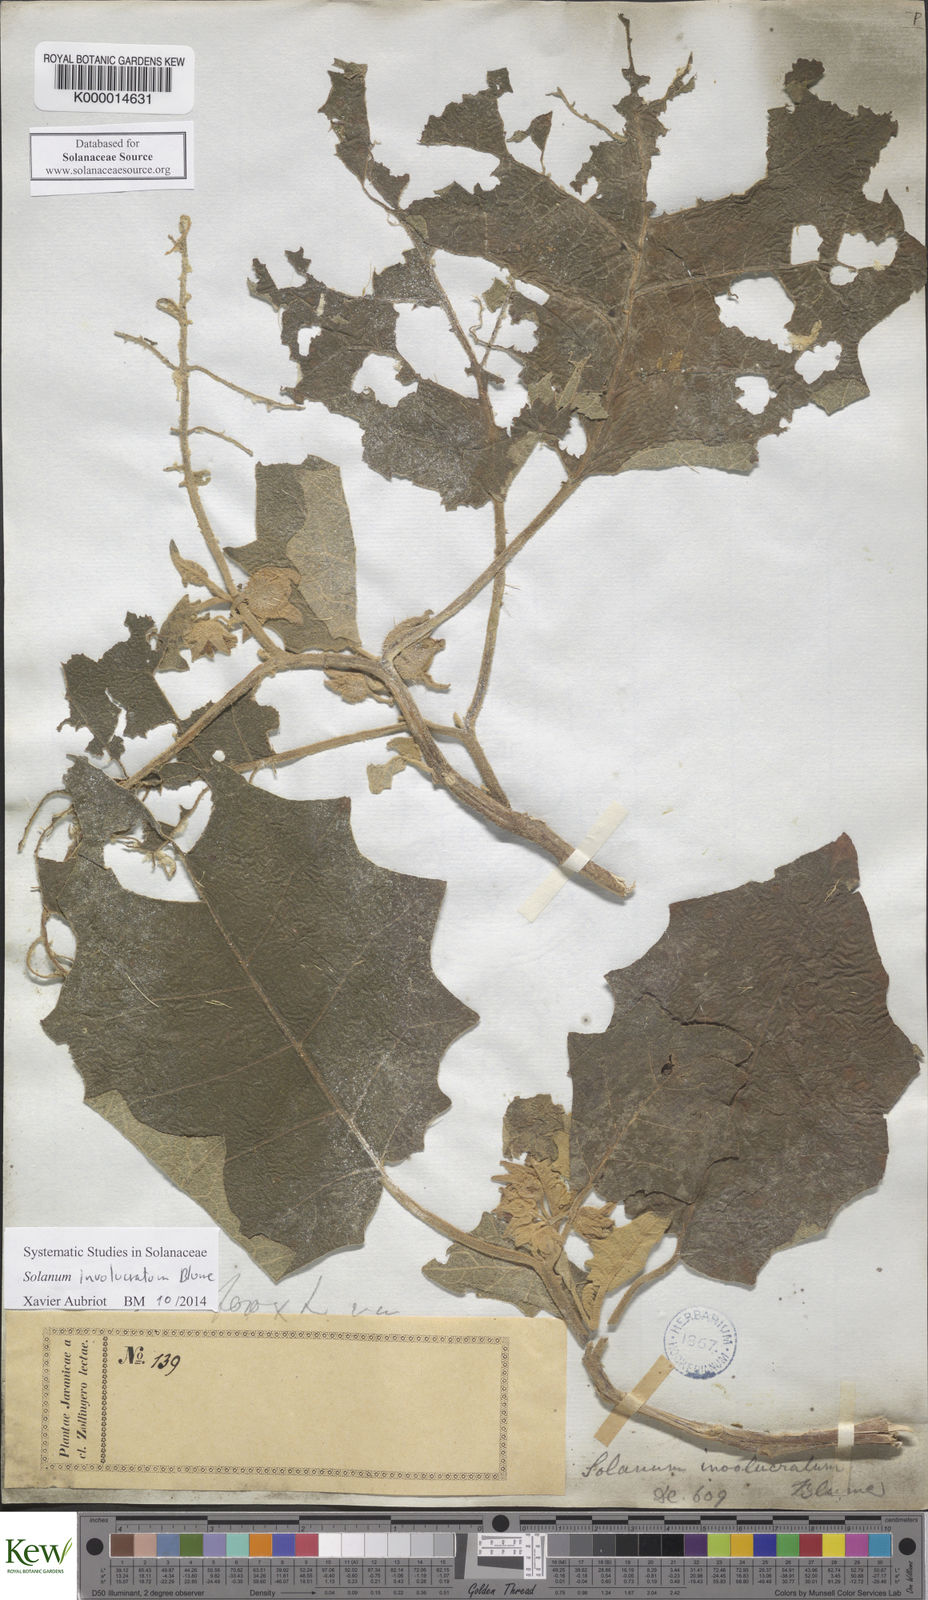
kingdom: Plantae
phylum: Tracheophyta
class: Magnoliopsida
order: Solanales
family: Solanaceae
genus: Solanum
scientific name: Solanum involucratum
